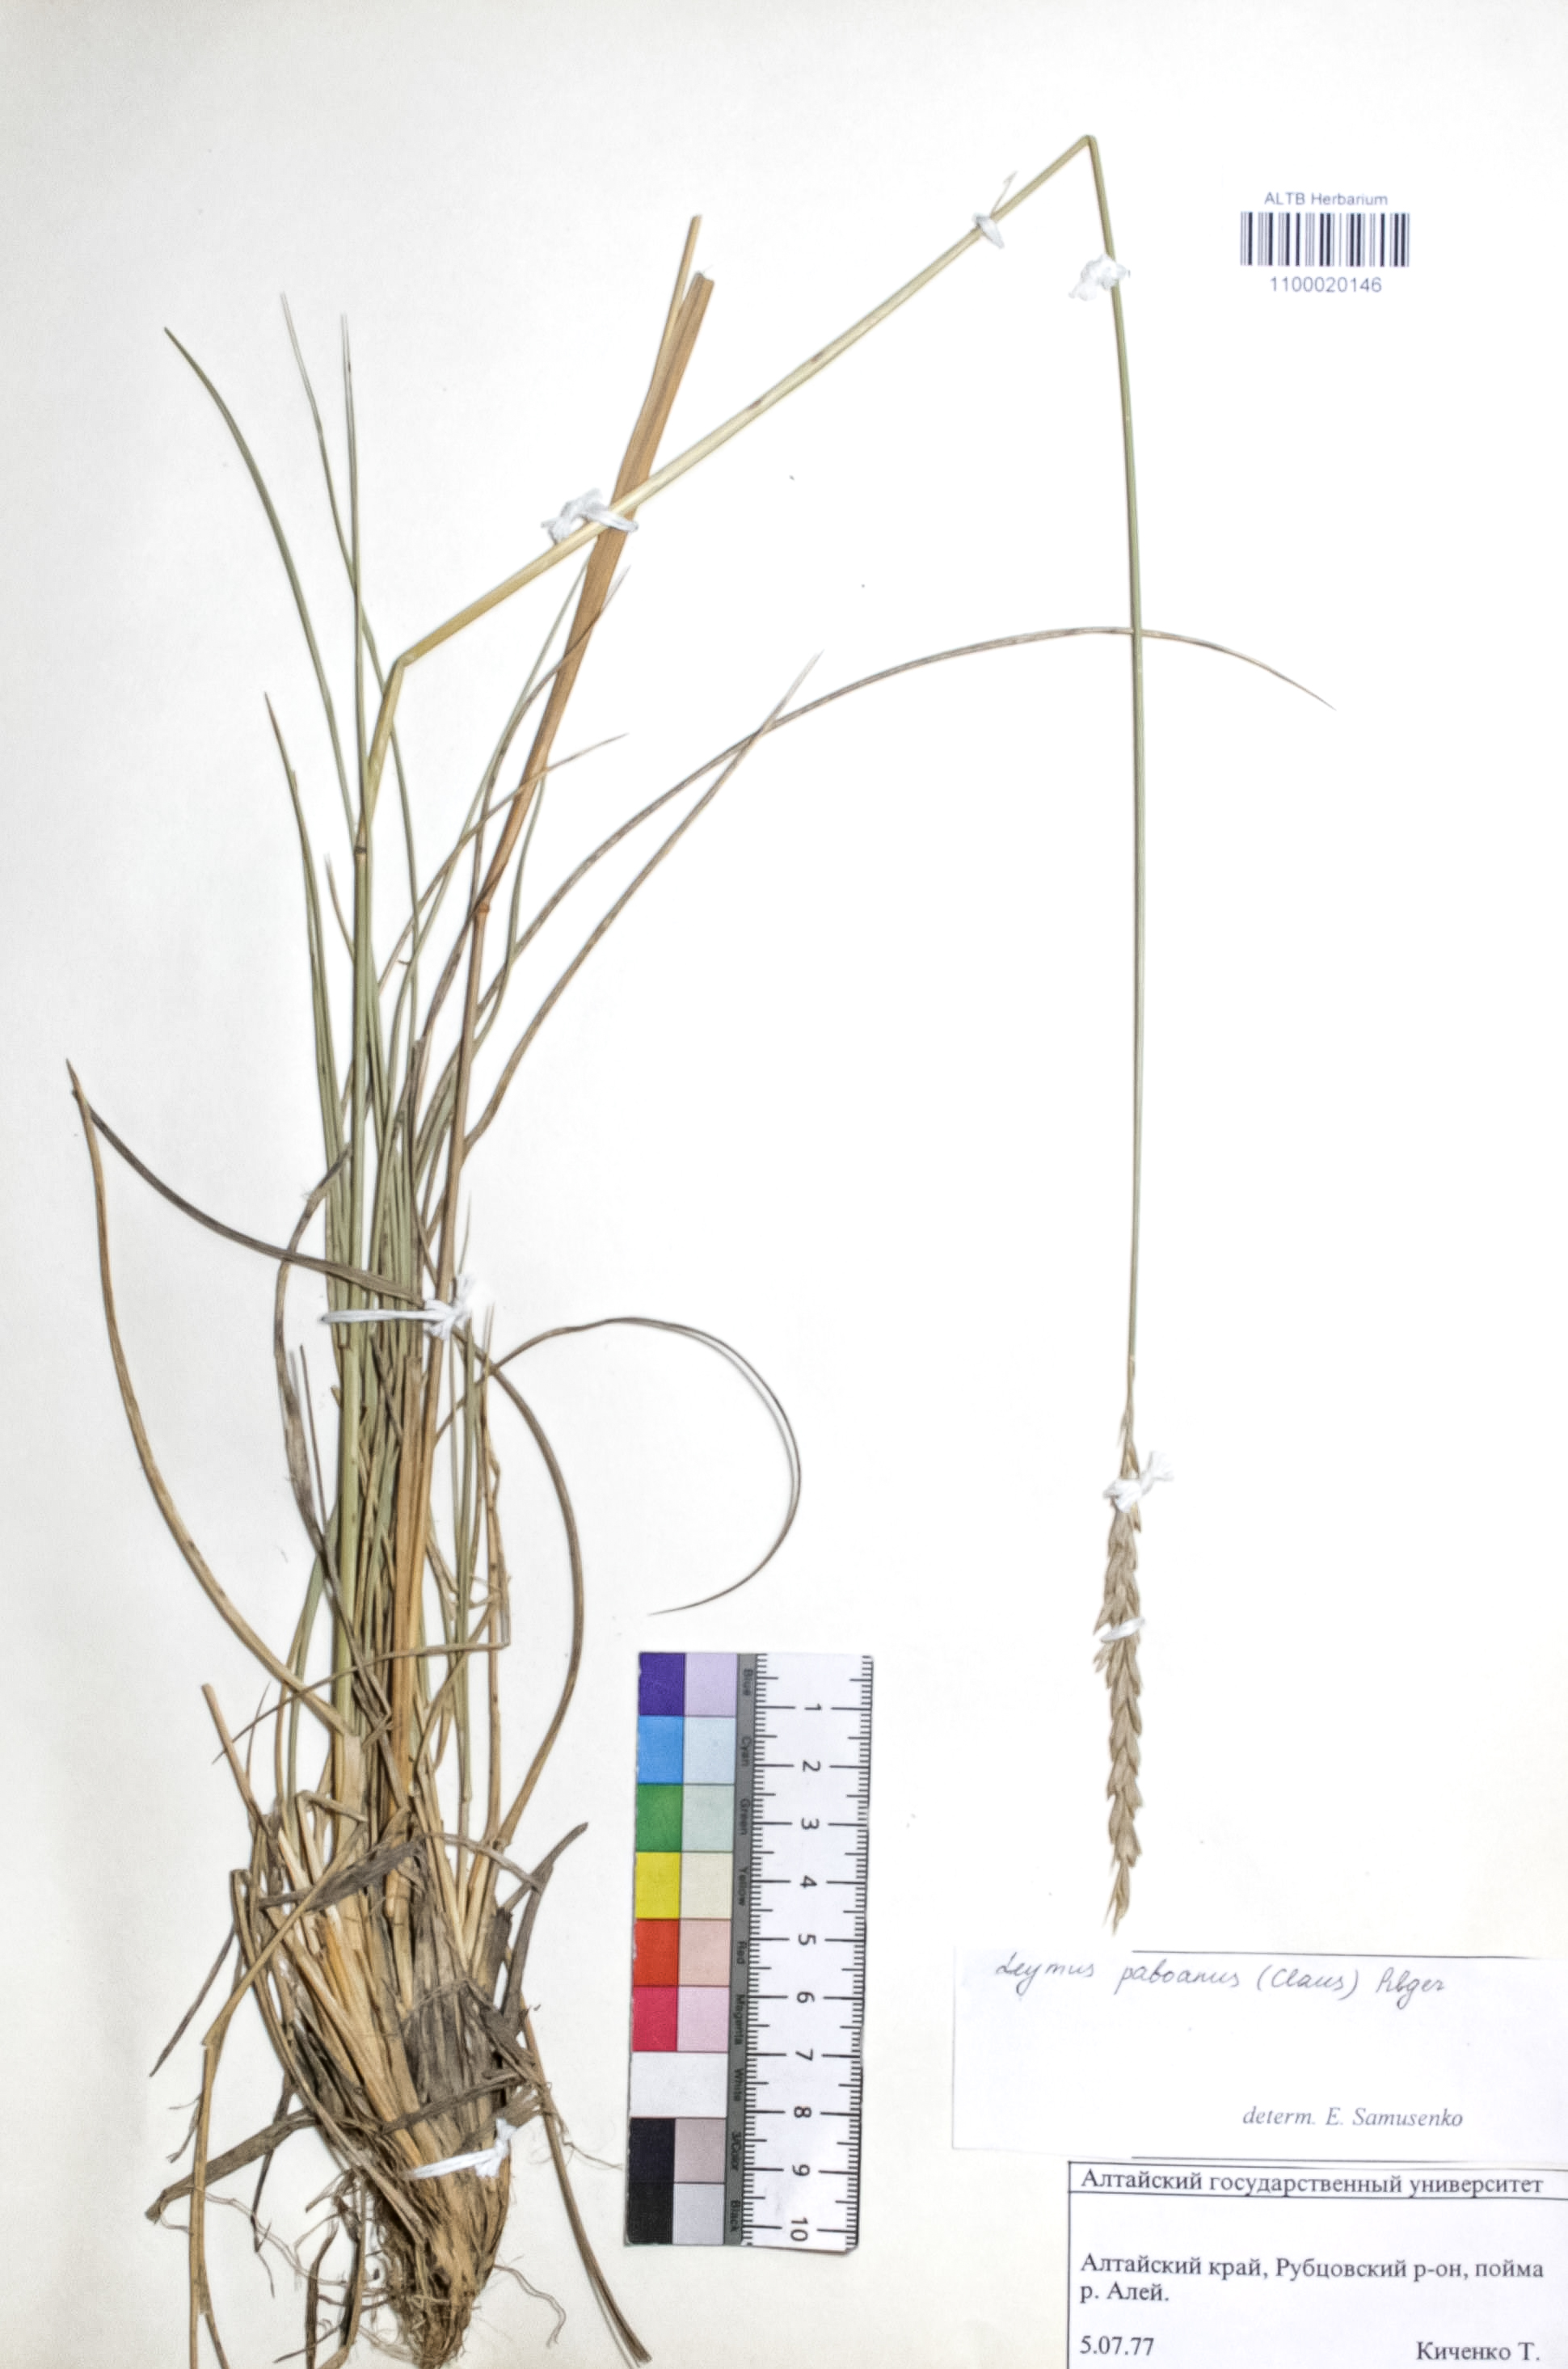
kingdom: Plantae
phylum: Tracheophyta
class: Liliopsida
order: Poales
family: Poaceae
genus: Leymus
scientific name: Leymus paboanus
